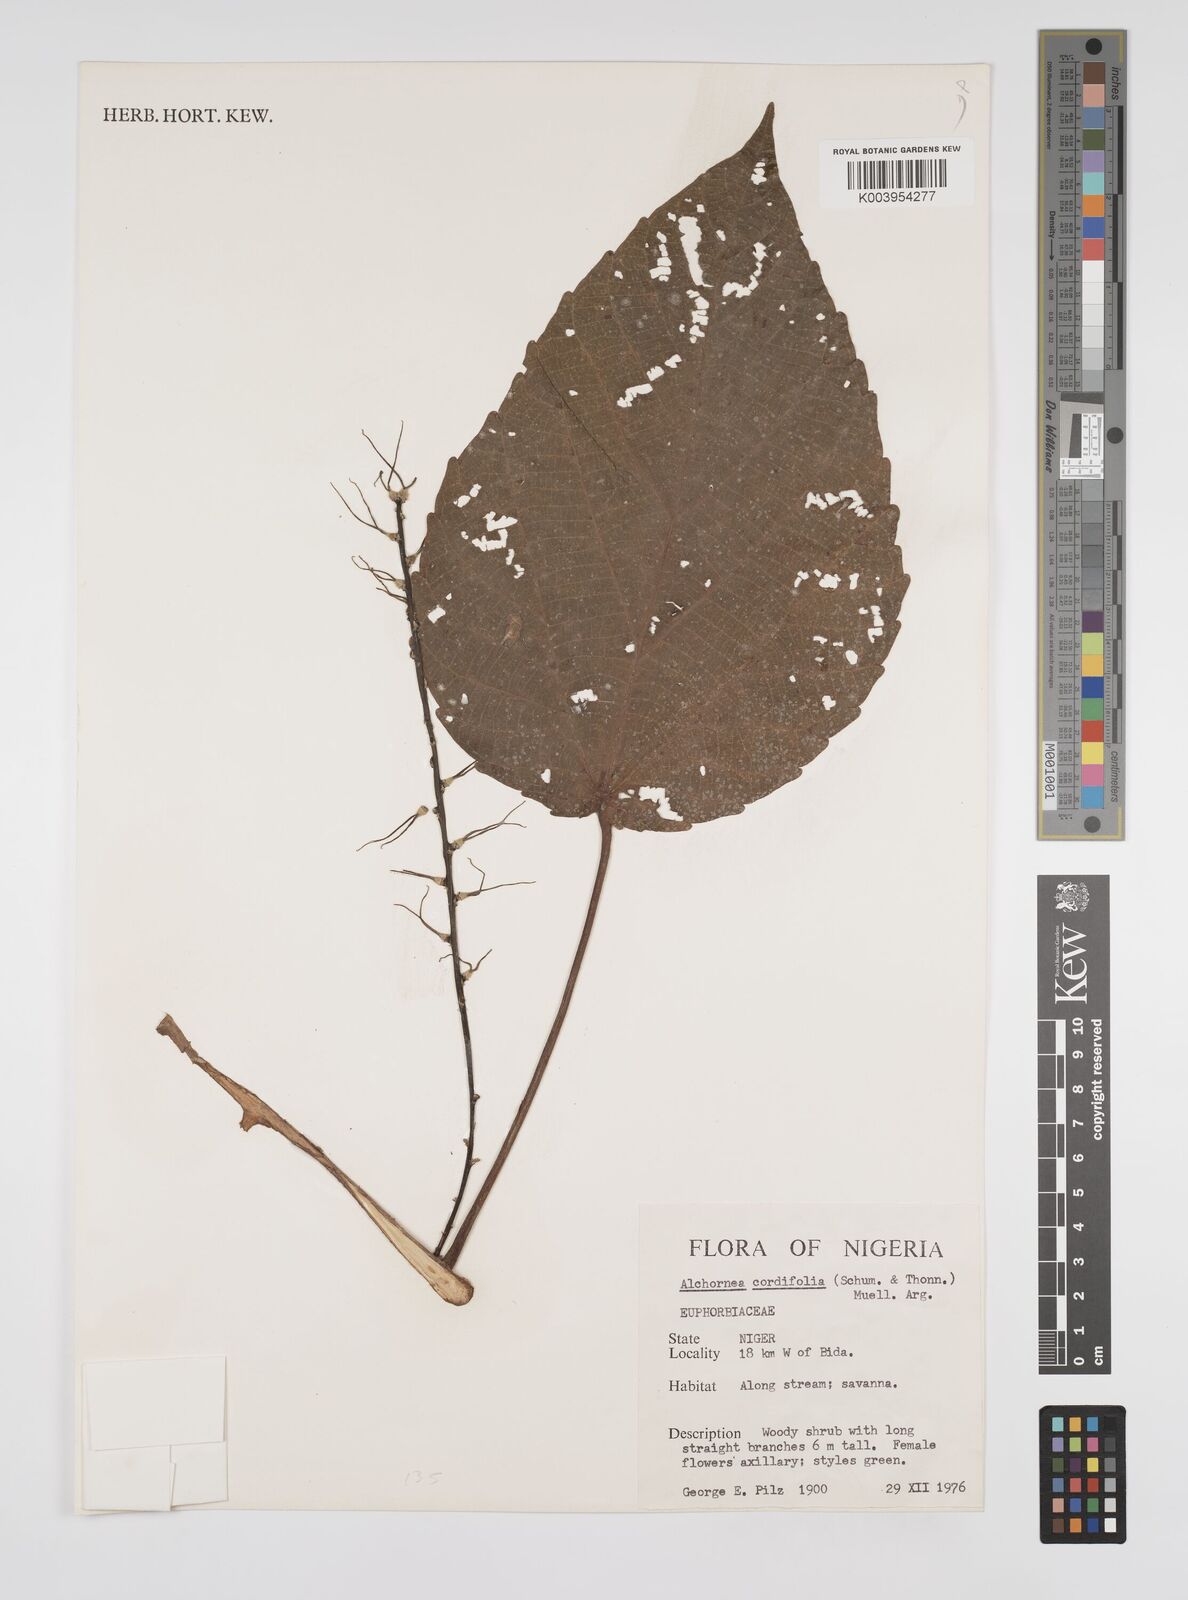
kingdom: Plantae
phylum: Tracheophyta
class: Magnoliopsida
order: Malpighiales
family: Euphorbiaceae
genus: Alchornea
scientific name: Alchornea cordifolia
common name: Christmasbush
